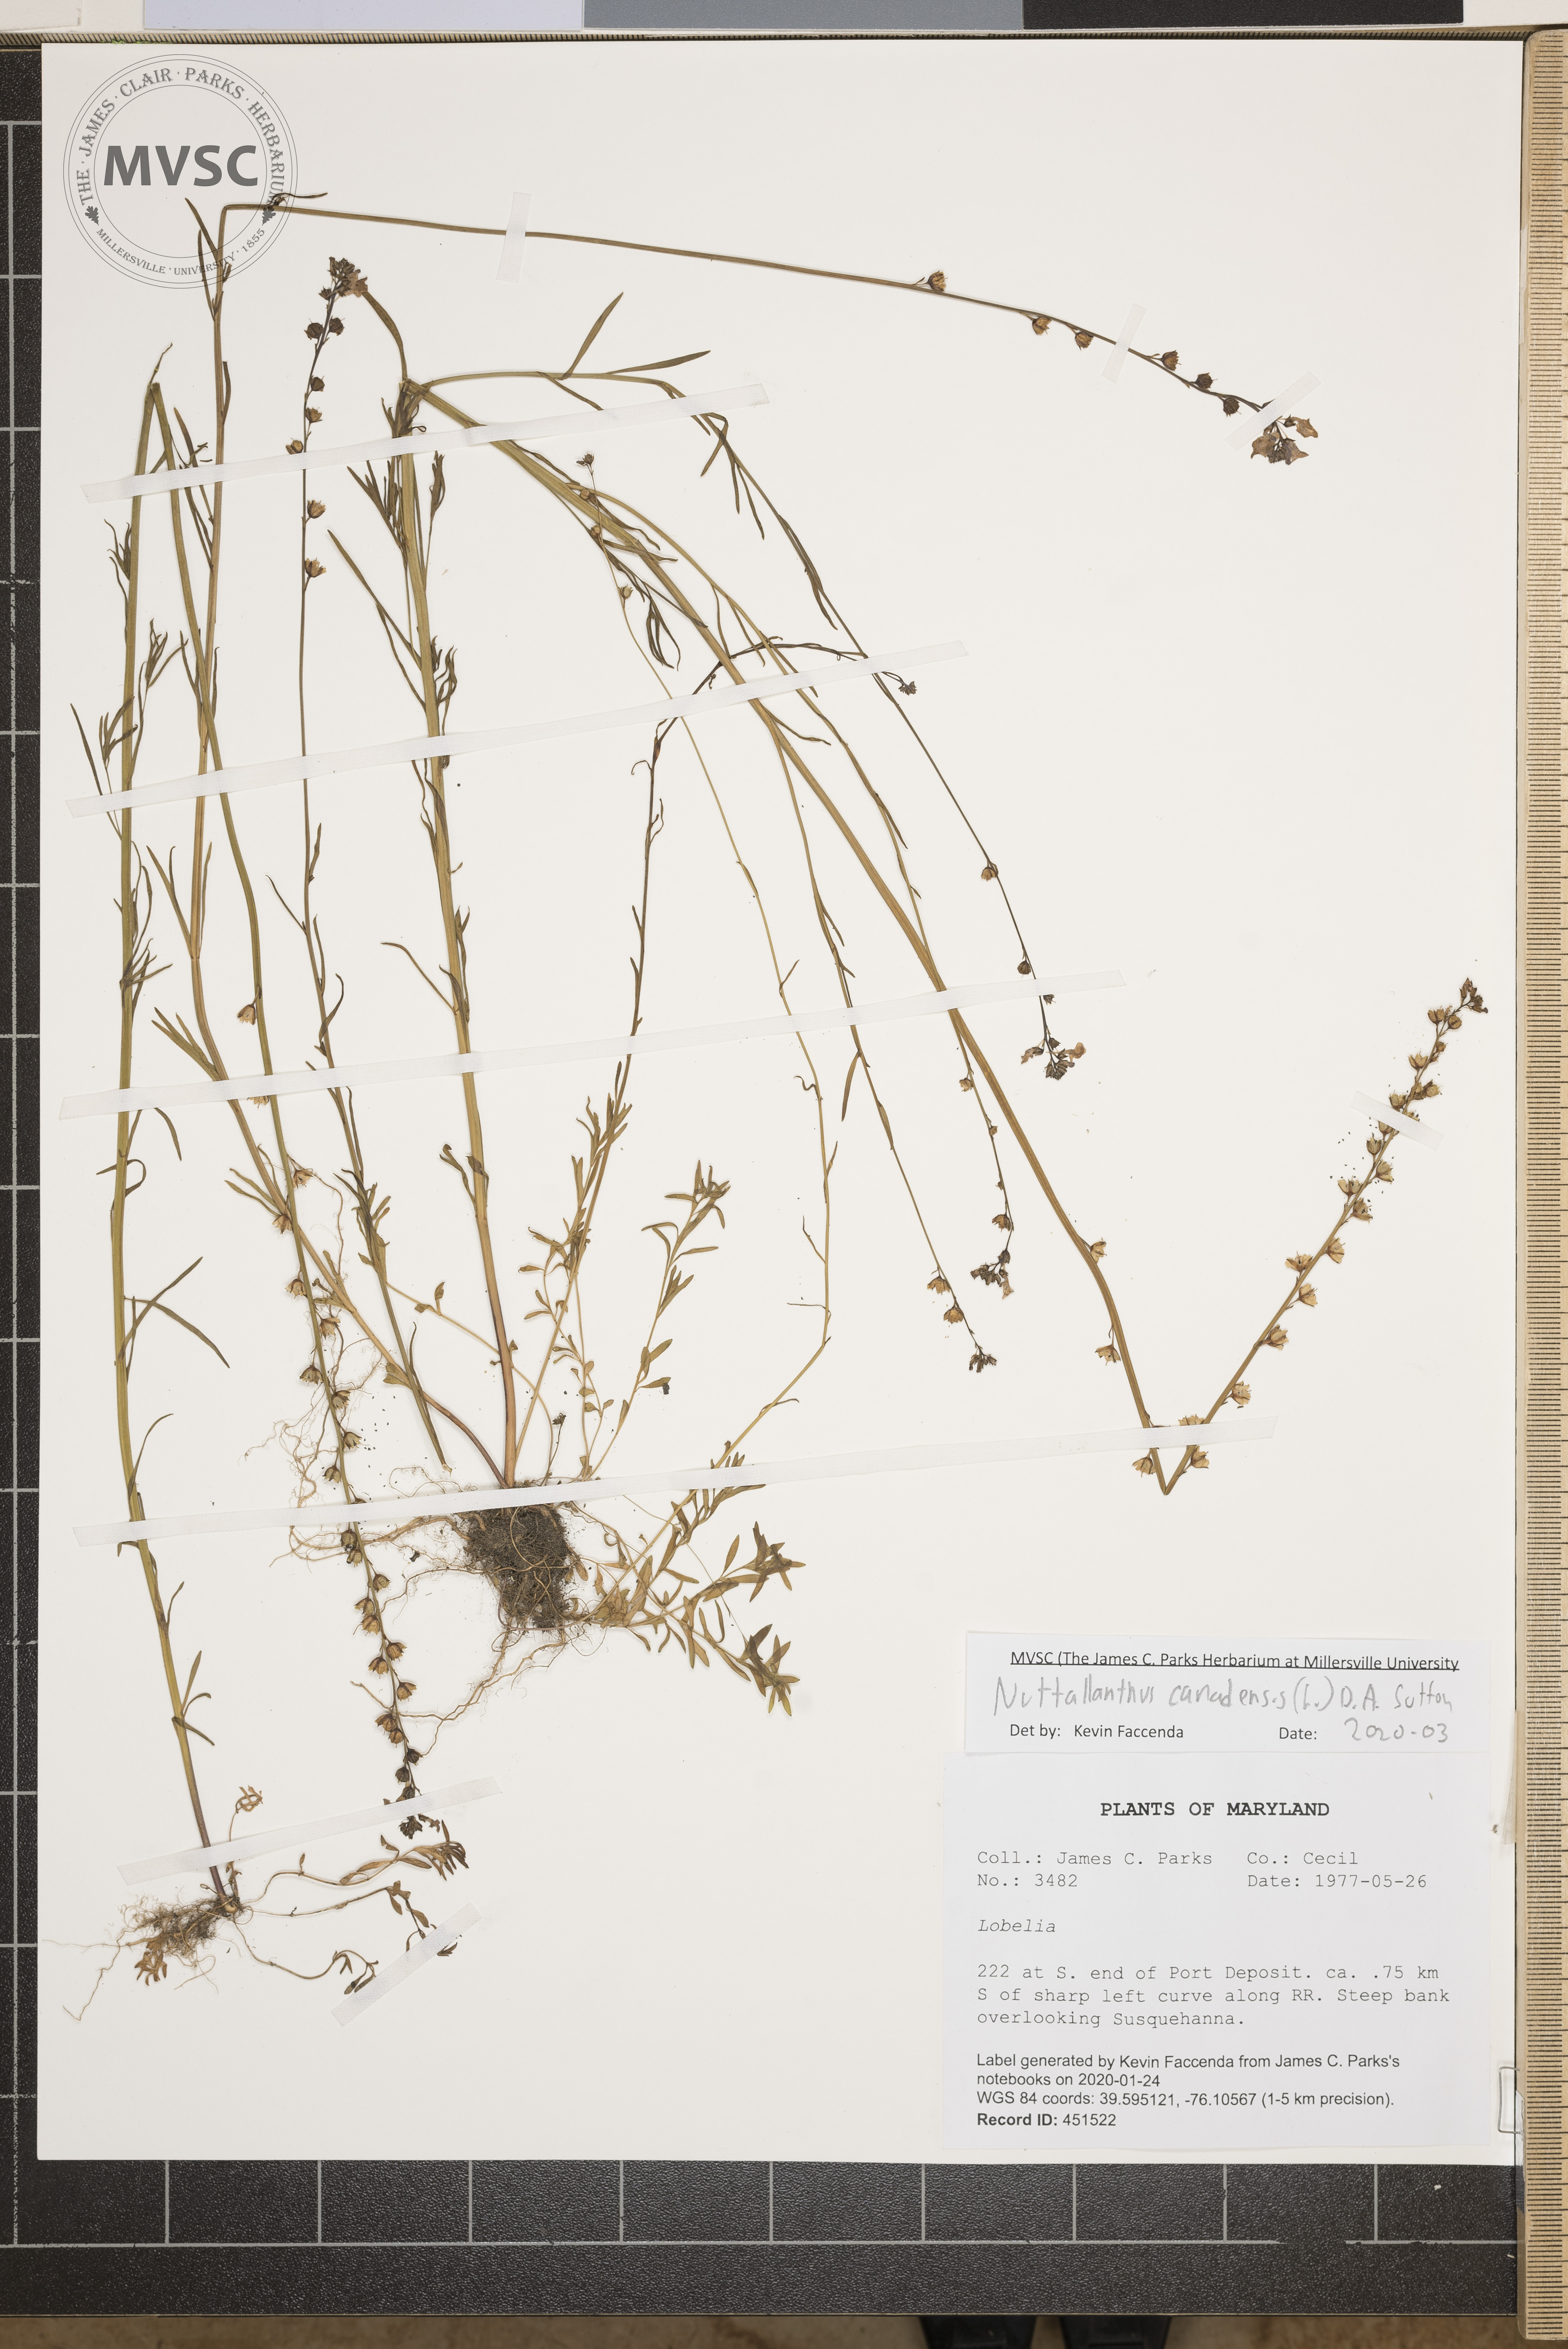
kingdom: Plantae
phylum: Tracheophyta
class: Magnoliopsida
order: Lamiales
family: Plantaginaceae
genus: Nuttallanthus
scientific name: Nuttallanthus canadensis
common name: Blue toadflax
